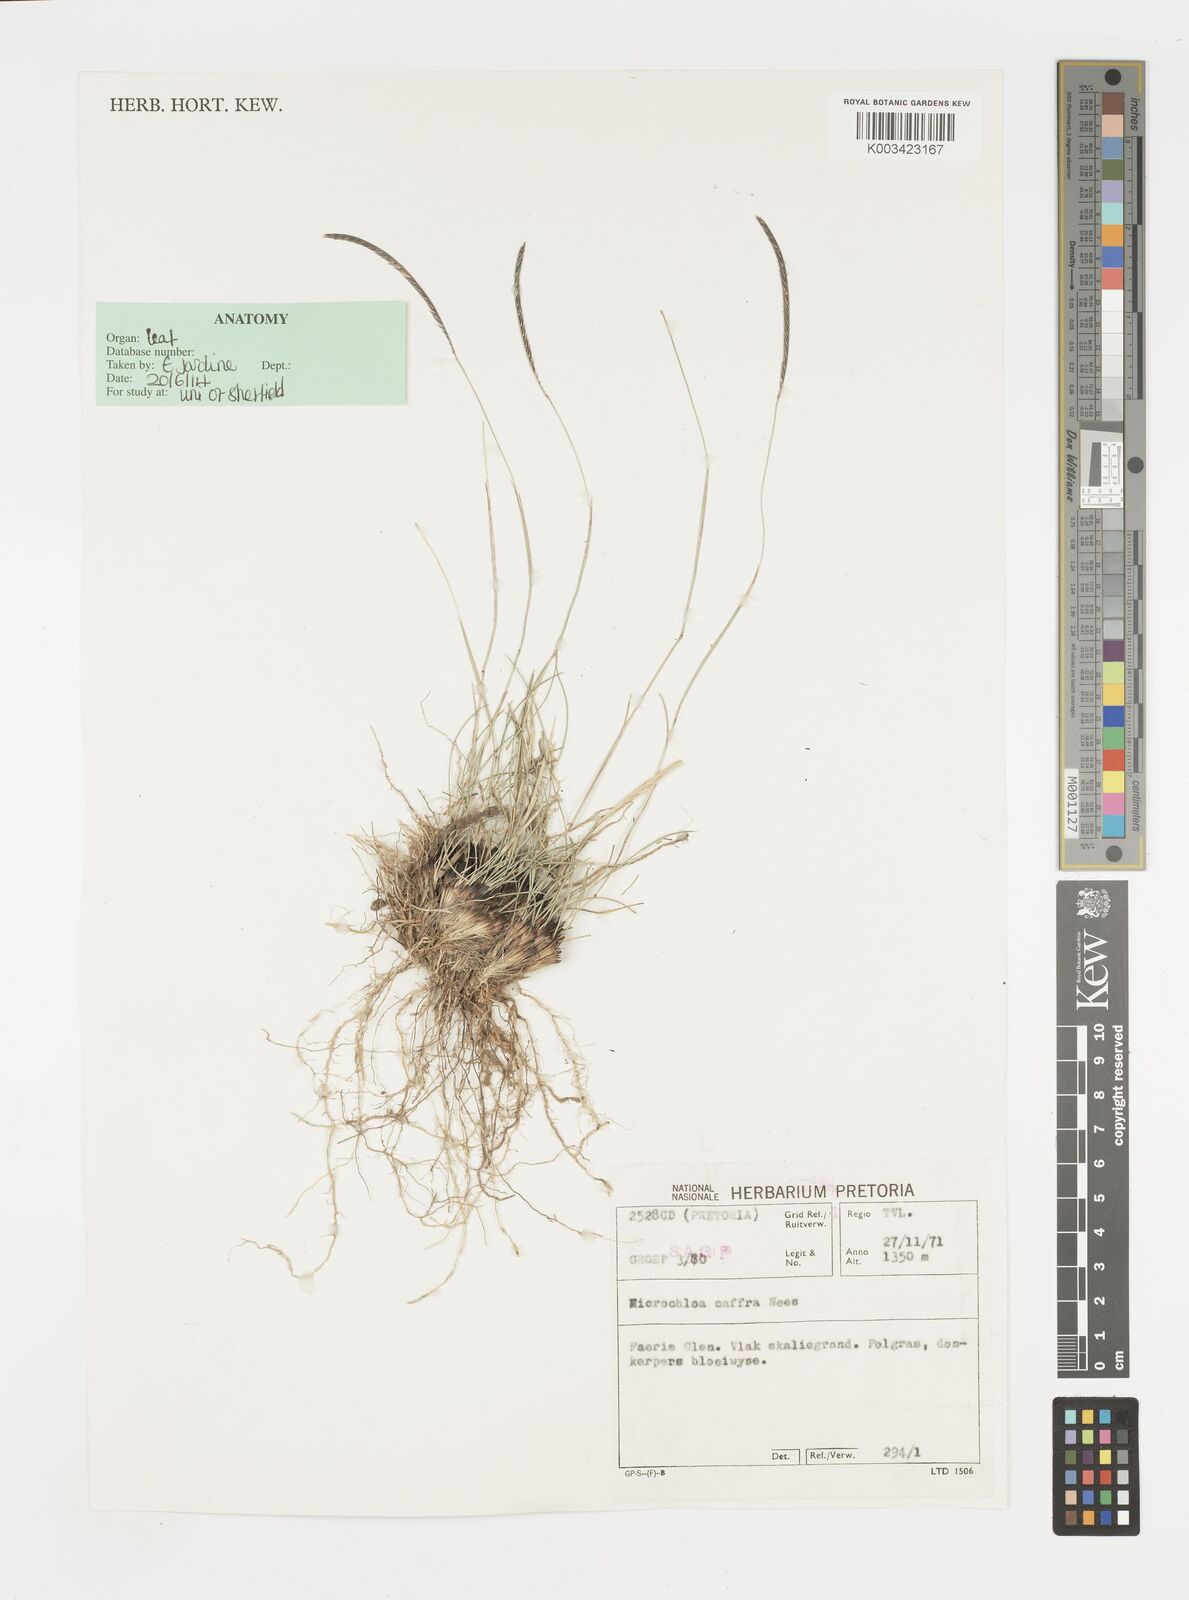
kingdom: Plantae
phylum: Tracheophyta
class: Liliopsida
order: Poales
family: Poaceae
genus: Microchloa
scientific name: Microchloa caffra
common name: Pincushion grass
